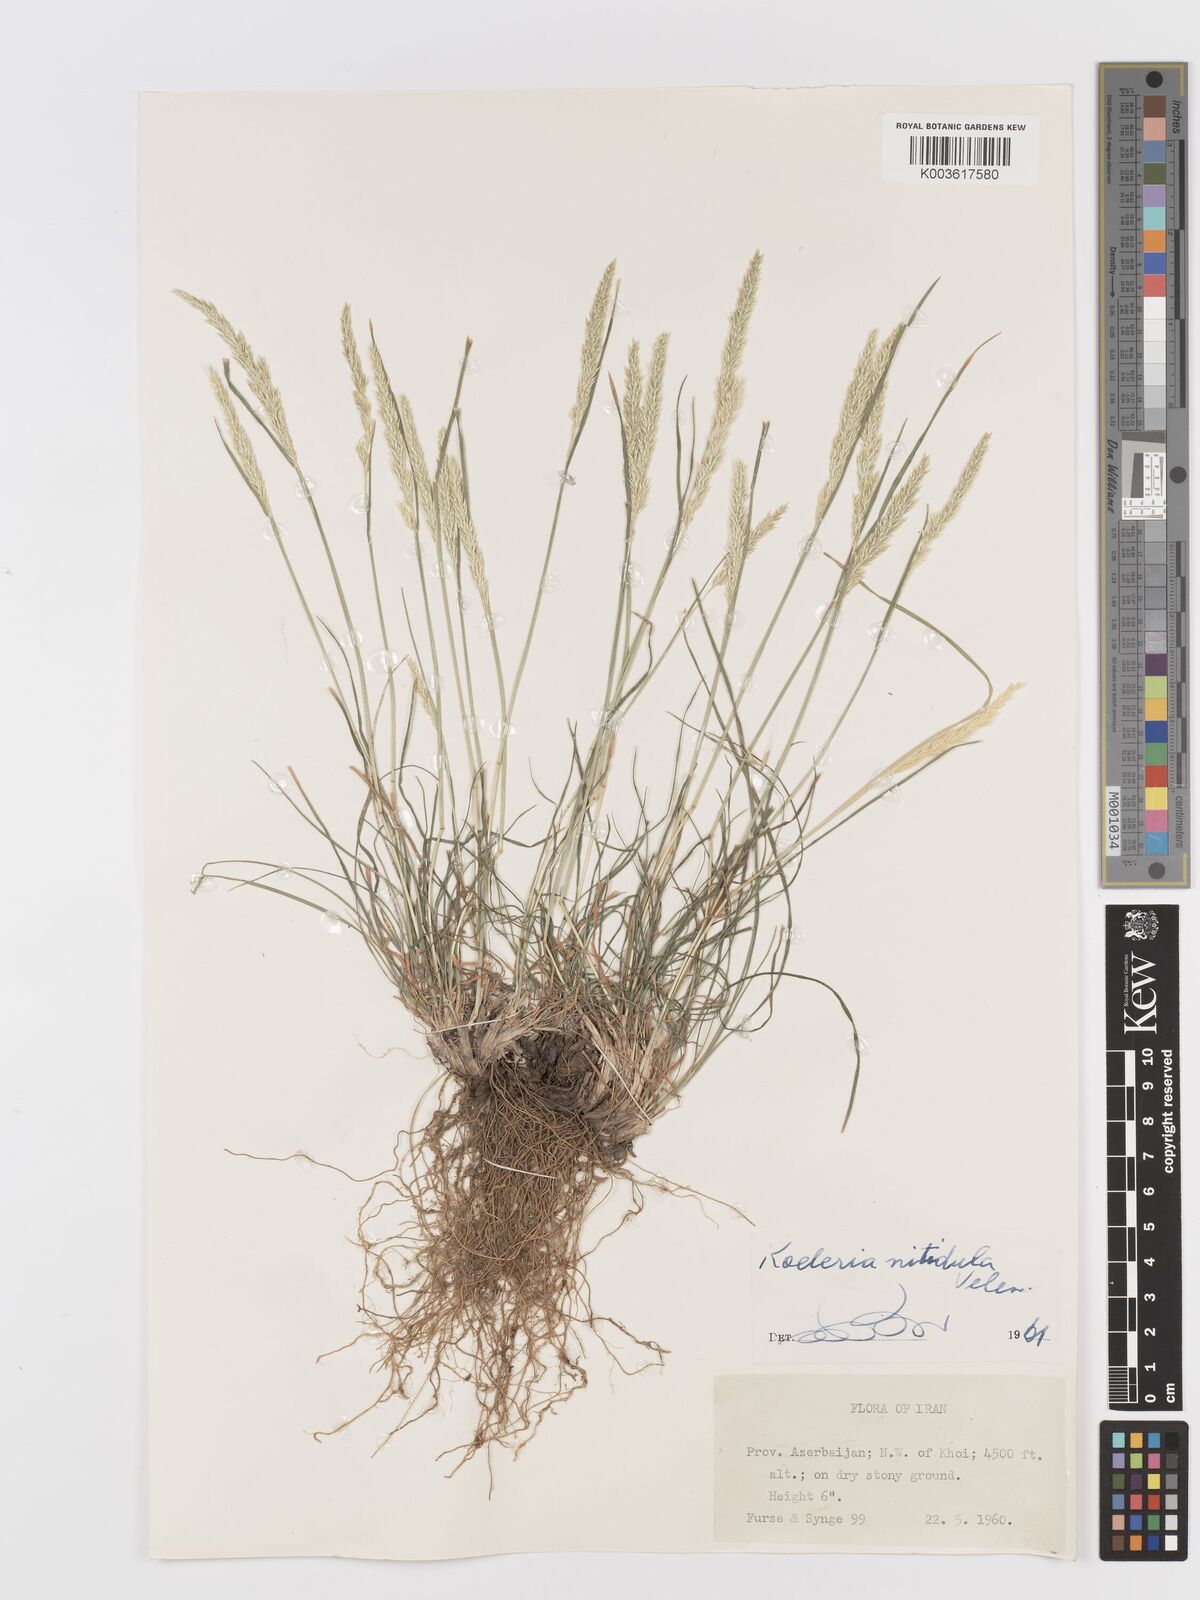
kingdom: Plantae
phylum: Tracheophyta
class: Liliopsida
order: Poales
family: Poaceae
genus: Koeleria
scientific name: Koeleria nitidula
